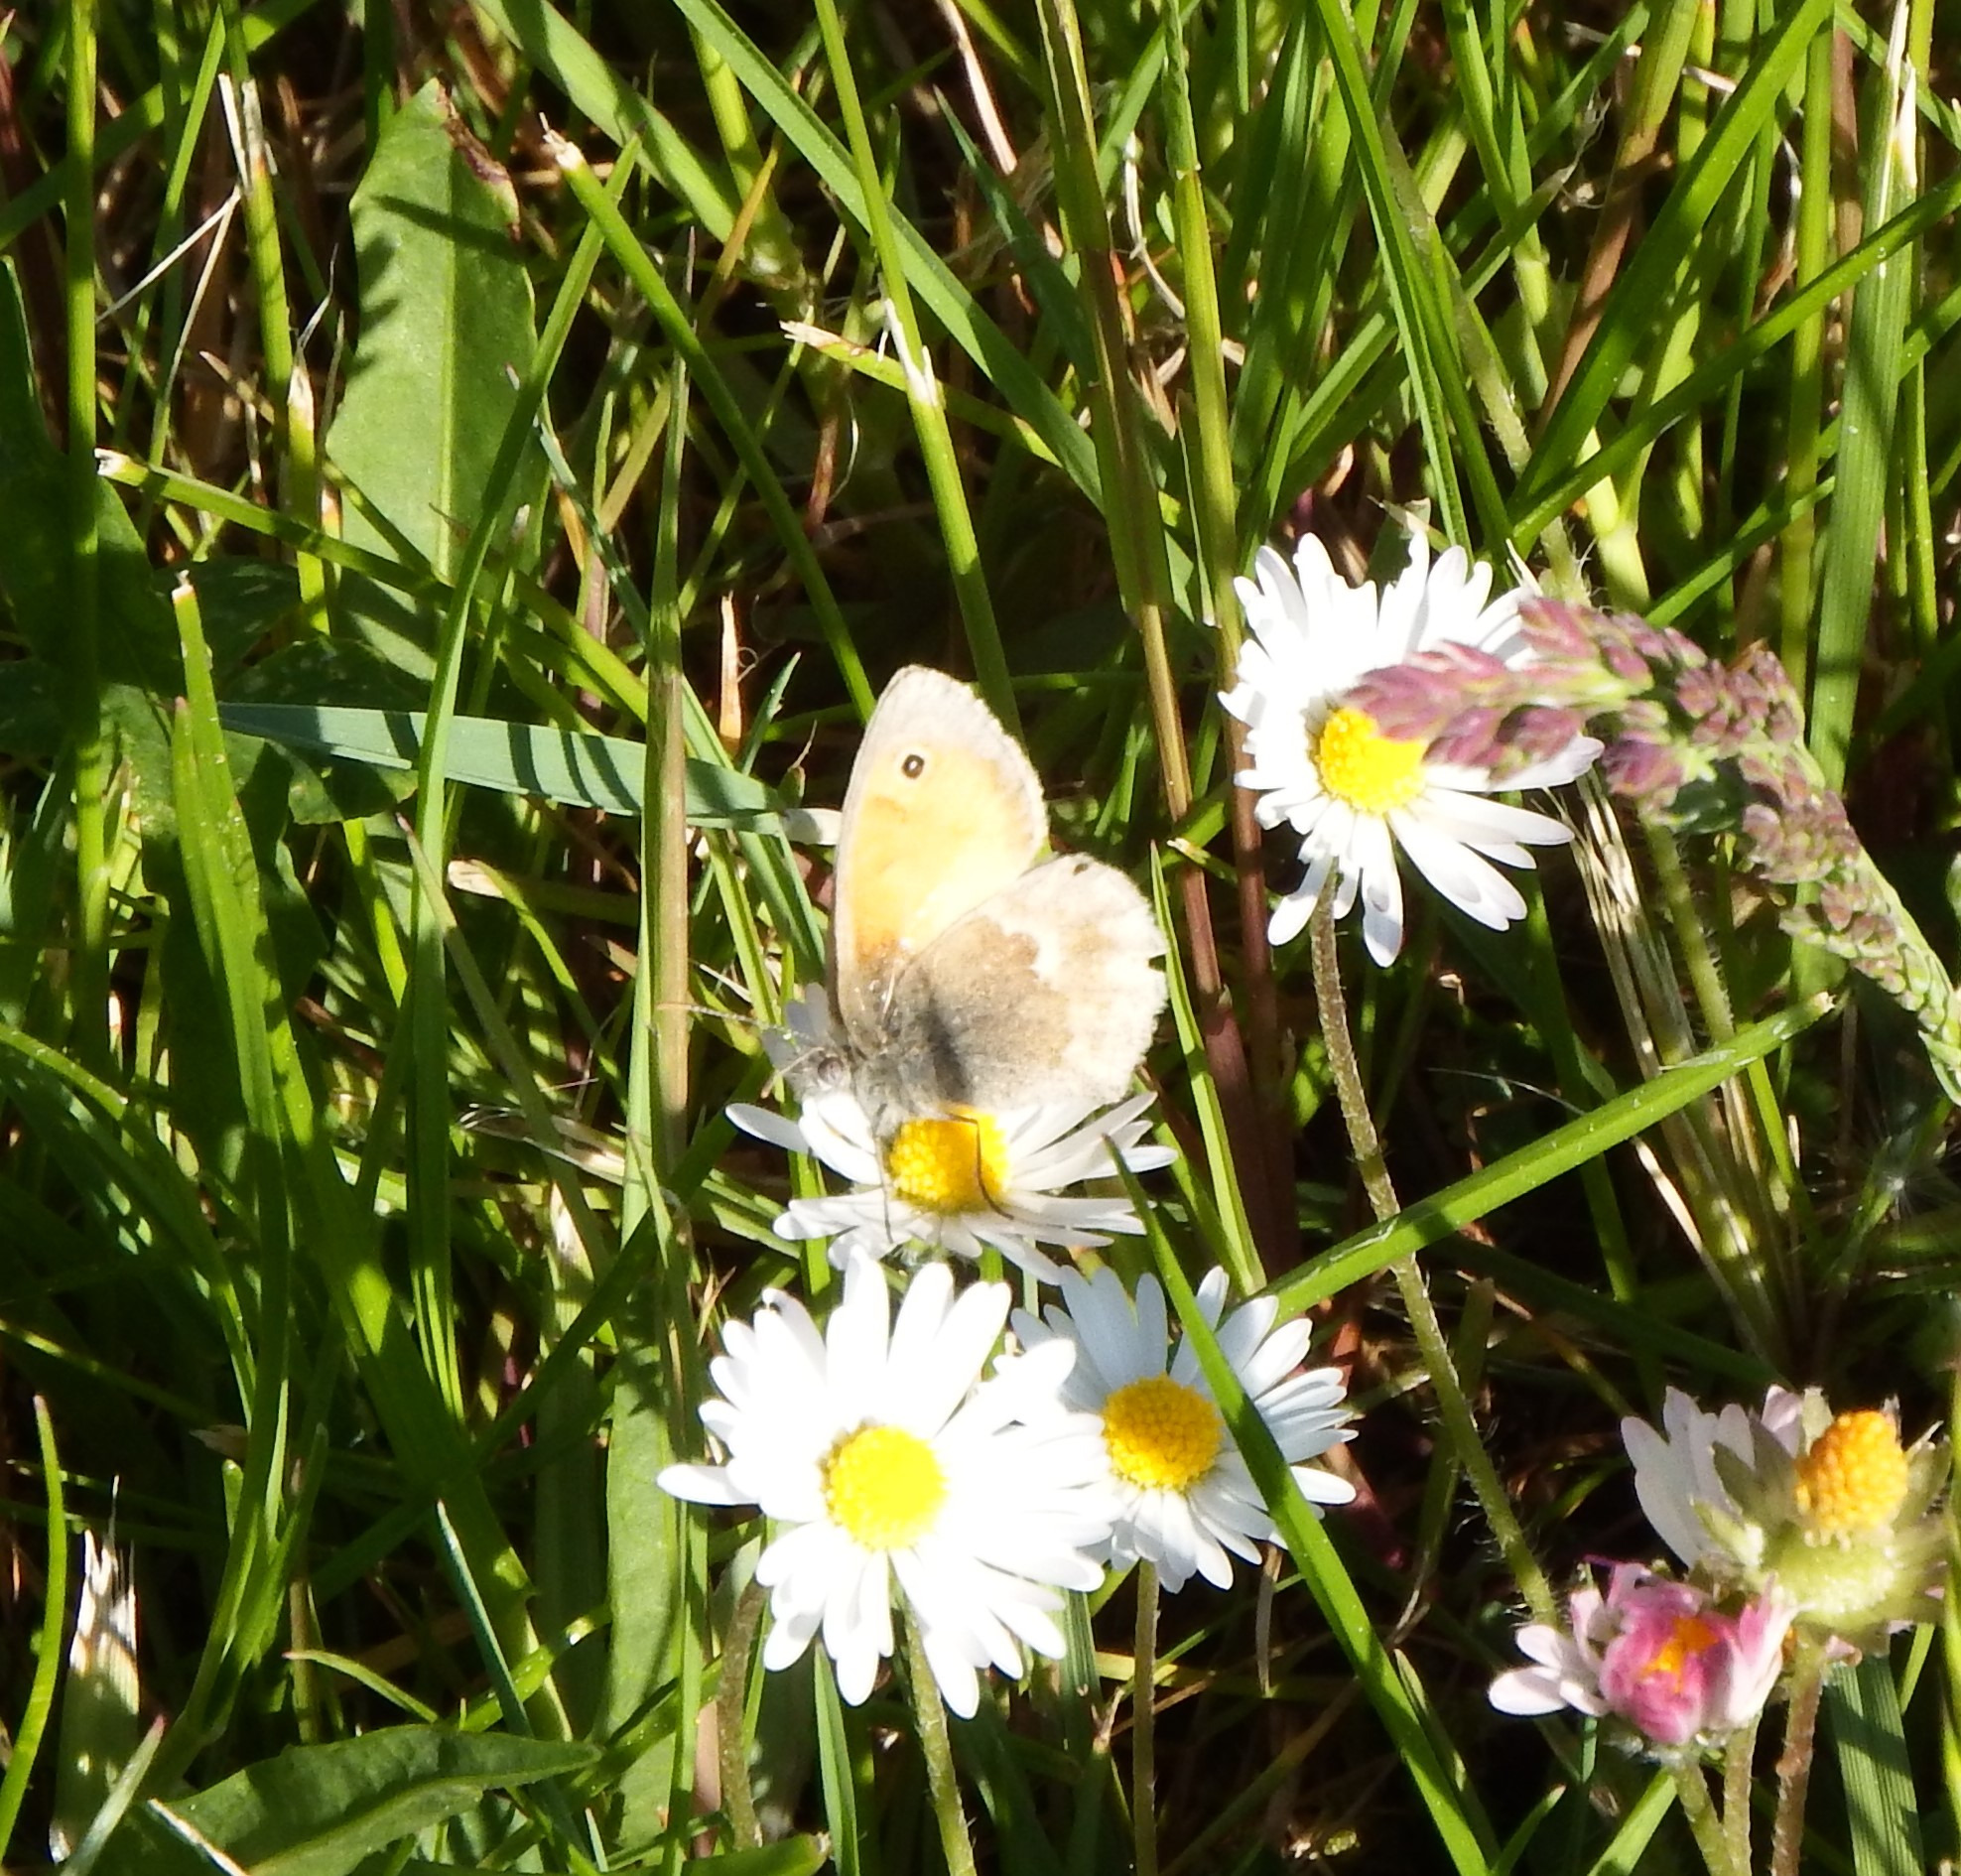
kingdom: Animalia
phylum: Arthropoda
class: Insecta
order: Lepidoptera
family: Nymphalidae
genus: Coenonympha
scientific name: Coenonympha pamphilus
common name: Okkergul randøje
